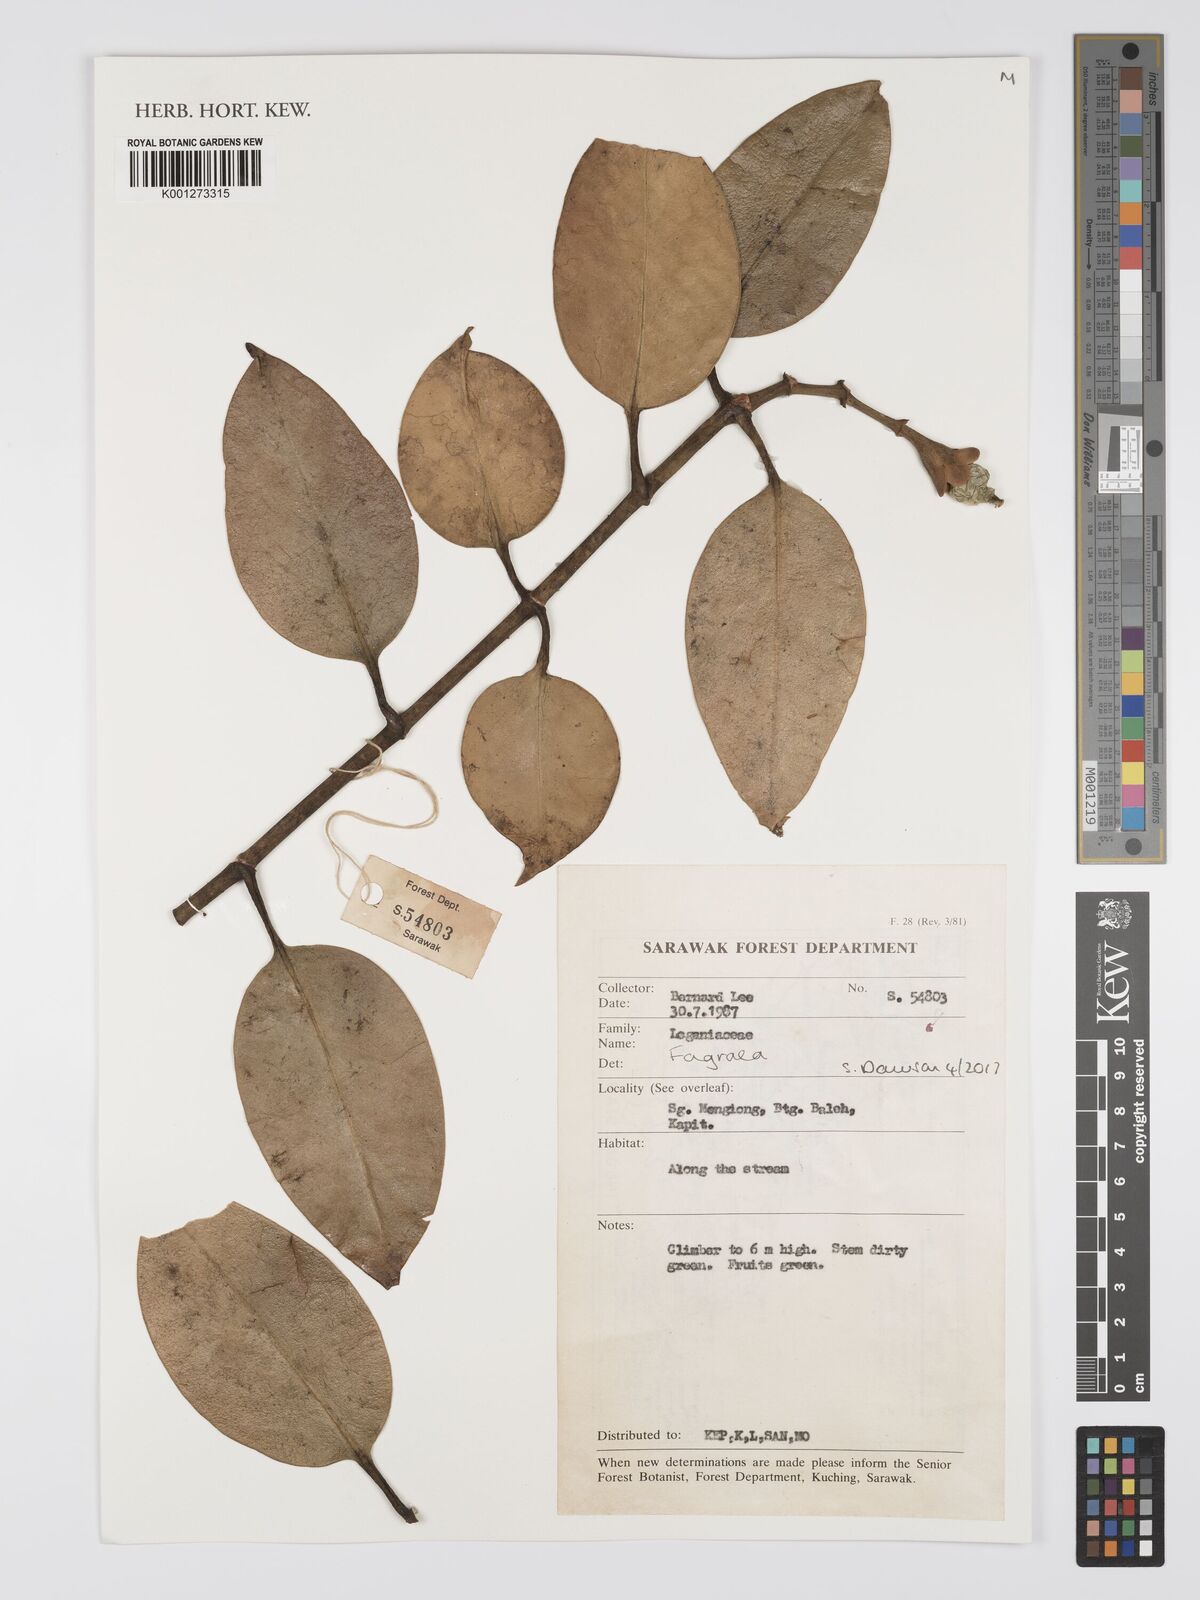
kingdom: Plantae
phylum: Tracheophyta
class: Magnoliopsida
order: Gentianales
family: Gentianaceae
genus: Fagraea
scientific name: Fagraea
